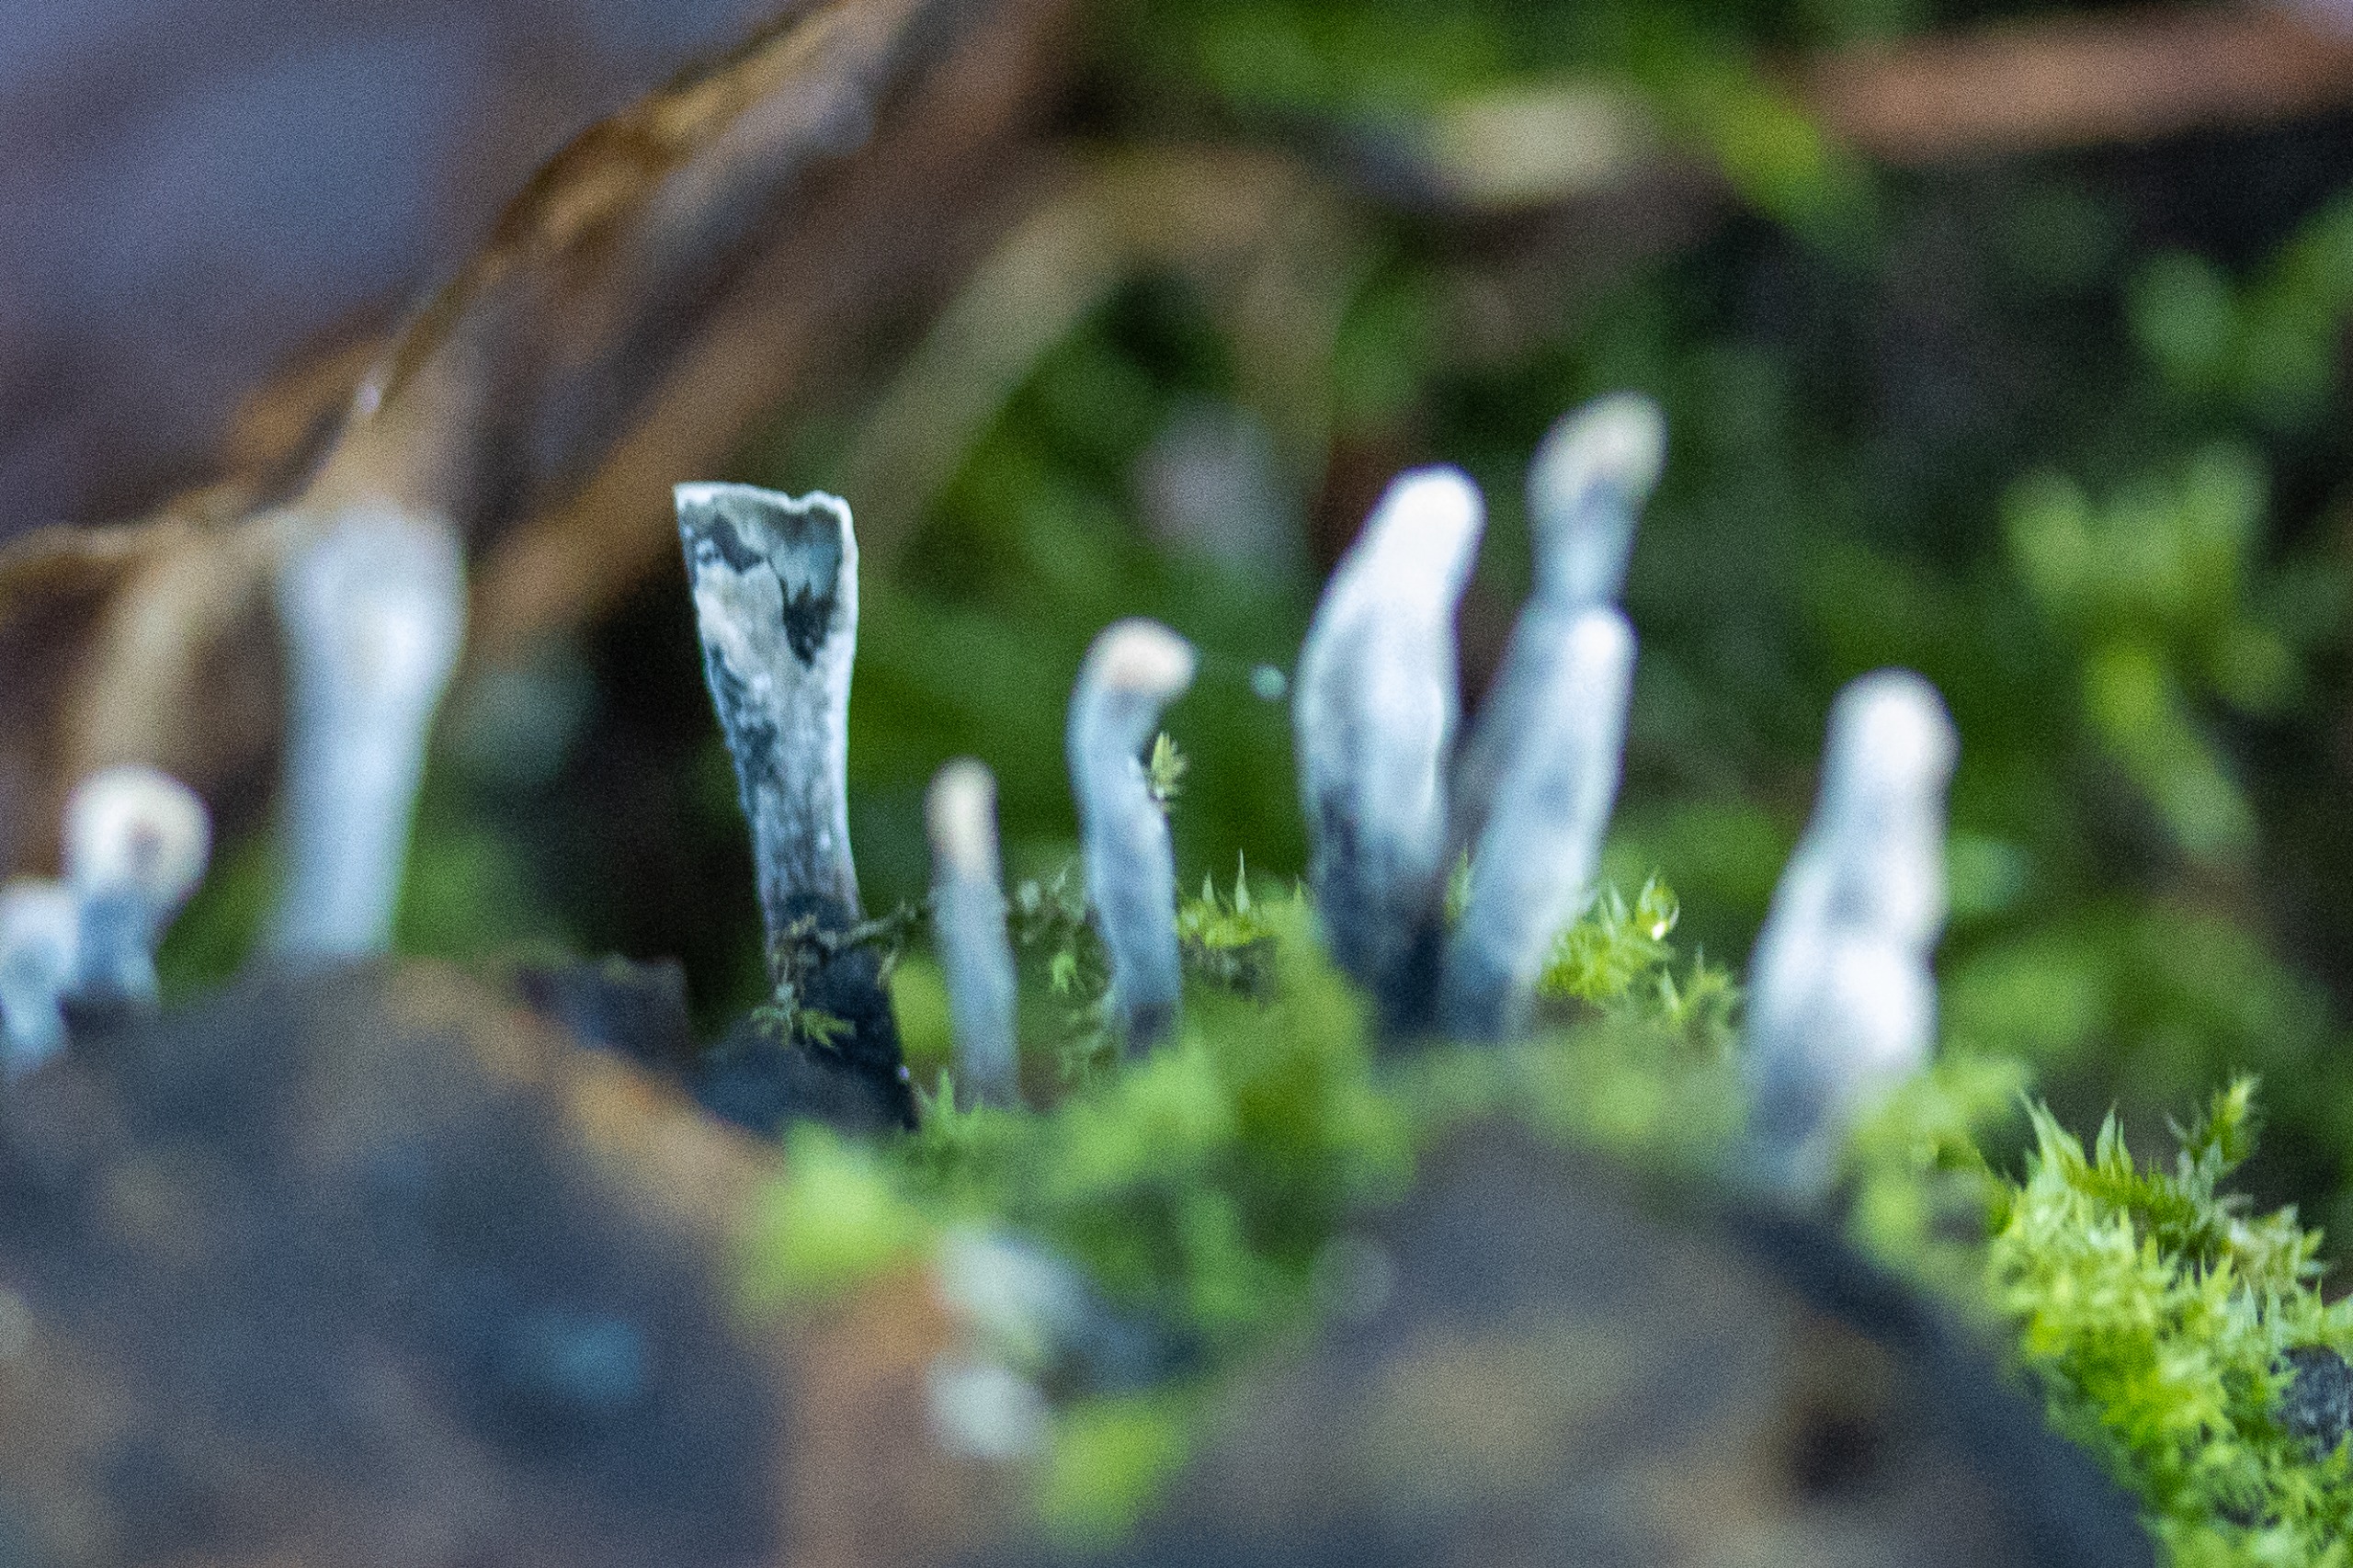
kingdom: Fungi
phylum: Ascomycota
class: Sordariomycetes
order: Xylariales
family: Xylariaceae
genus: Xylaria
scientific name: Xylaria hypoxylon
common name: Grenet stødsvamp
